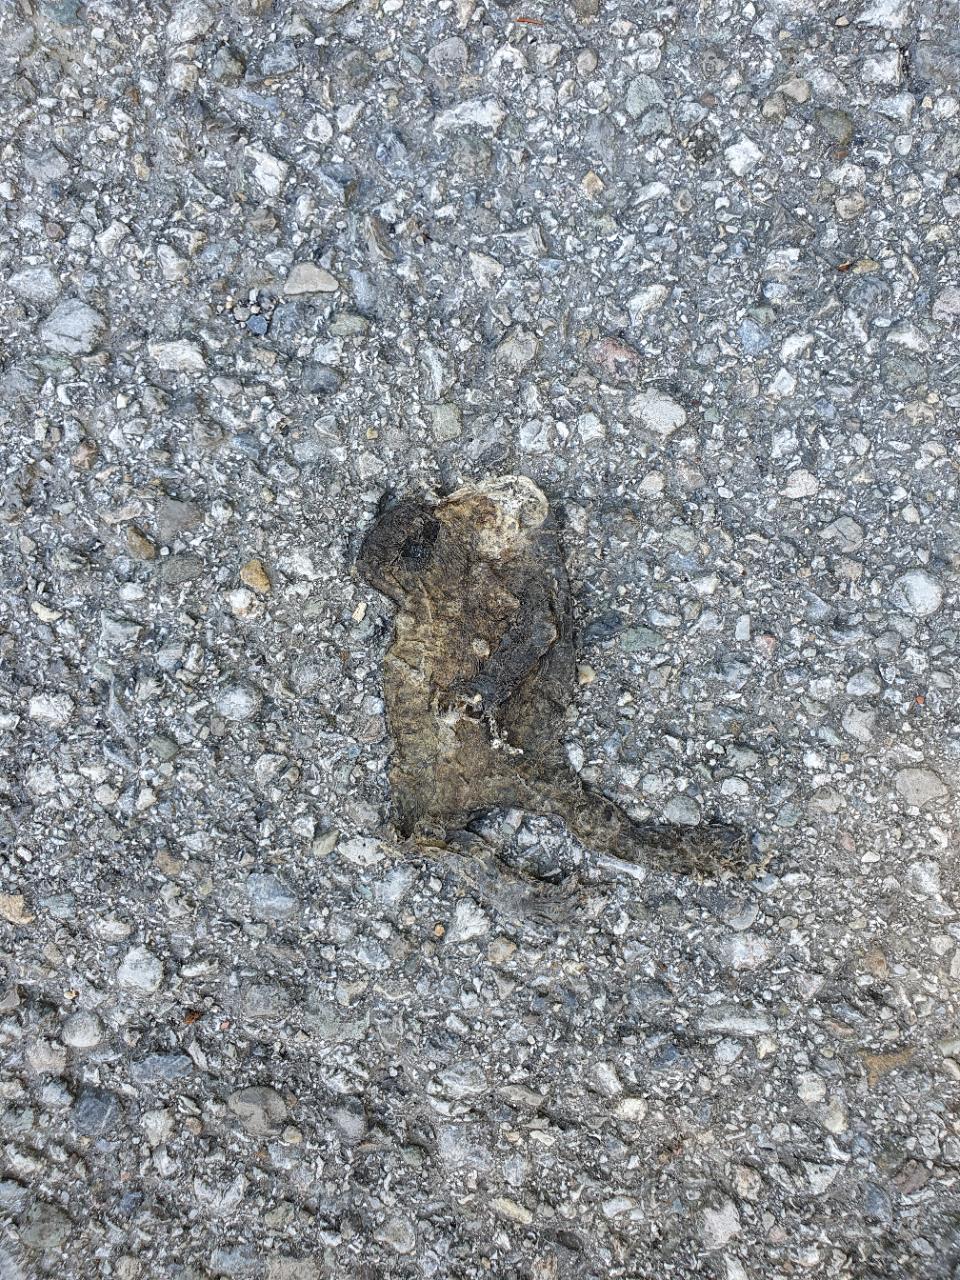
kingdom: Animalia
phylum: Chordata
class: Amphibia
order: Anura
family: Bufonidae
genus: Bufo
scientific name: Bufo bufo
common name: Common toad
